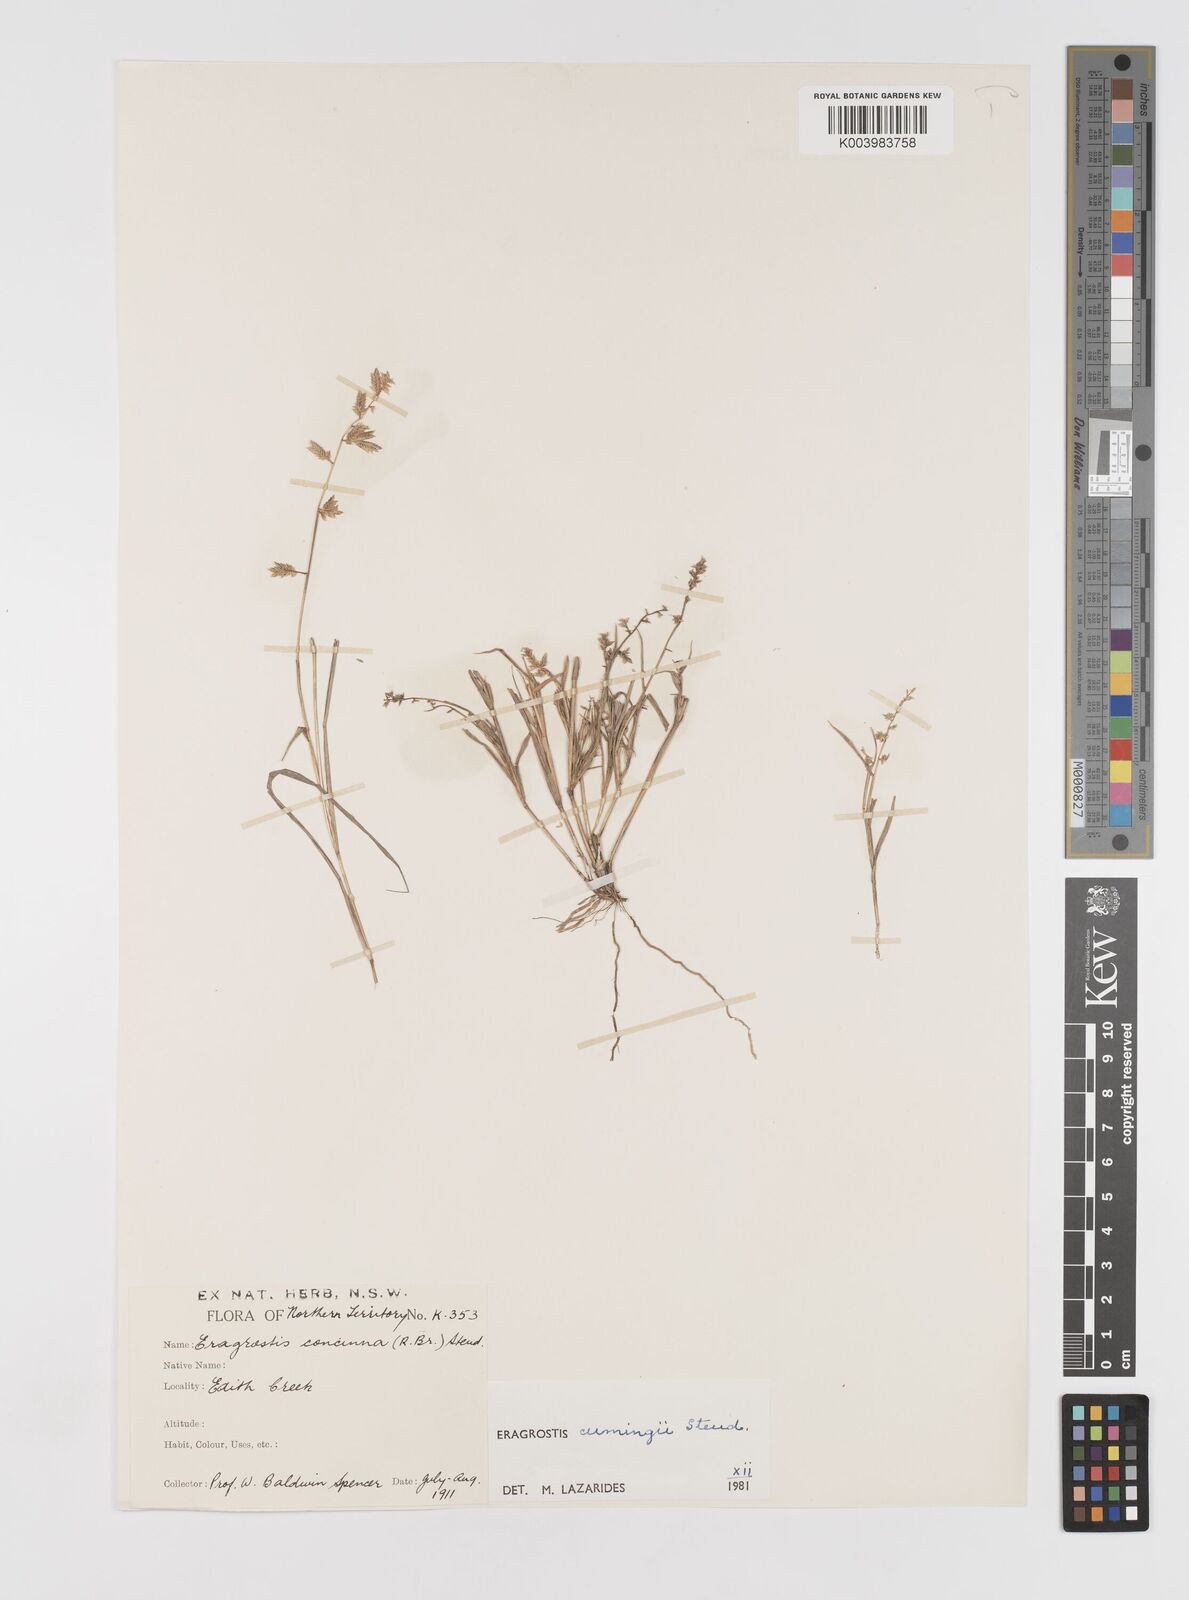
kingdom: Plantae
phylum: Tracheophyta
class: Liliopsida
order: Poales
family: Poaceae
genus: Eragrostis
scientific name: Eragrostis cumingii
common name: Cuming's lovegrass
